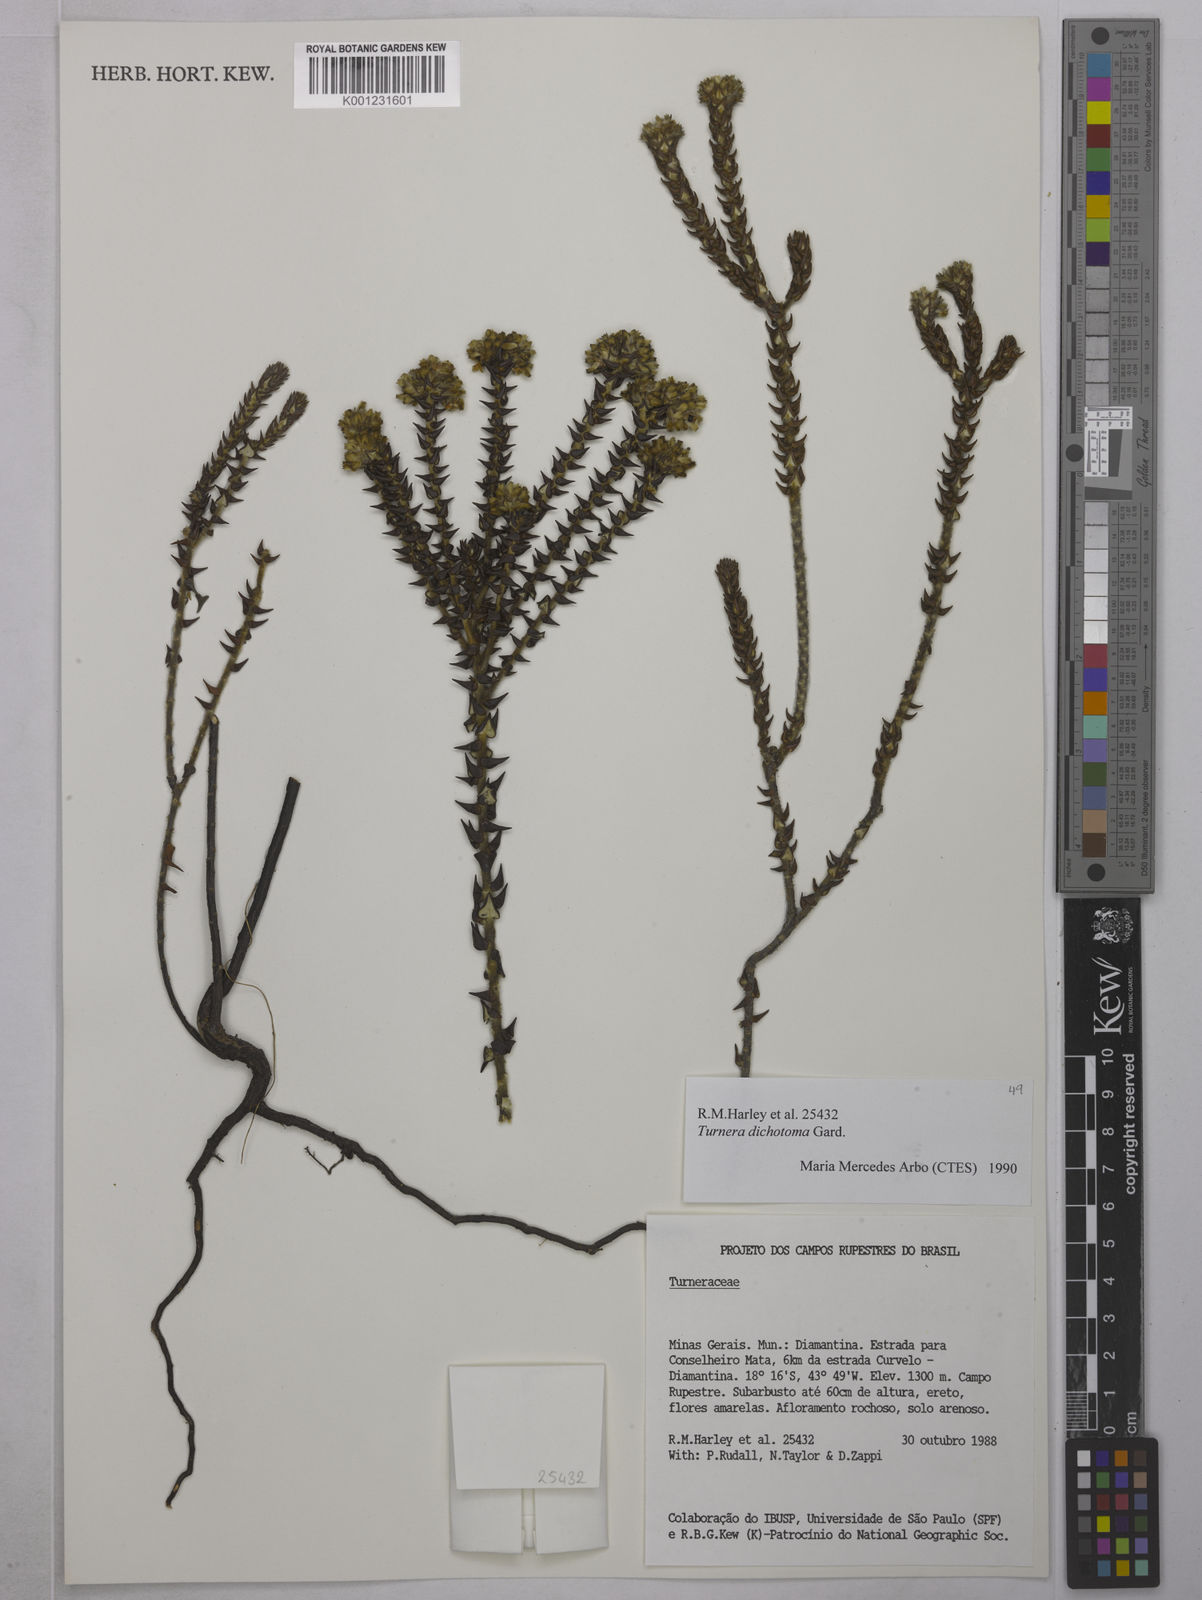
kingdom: Plantae
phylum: Tracheophyta
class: Magnoliopsida
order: Malpighiales
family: Turneraceae
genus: Turnera
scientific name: Turnera
